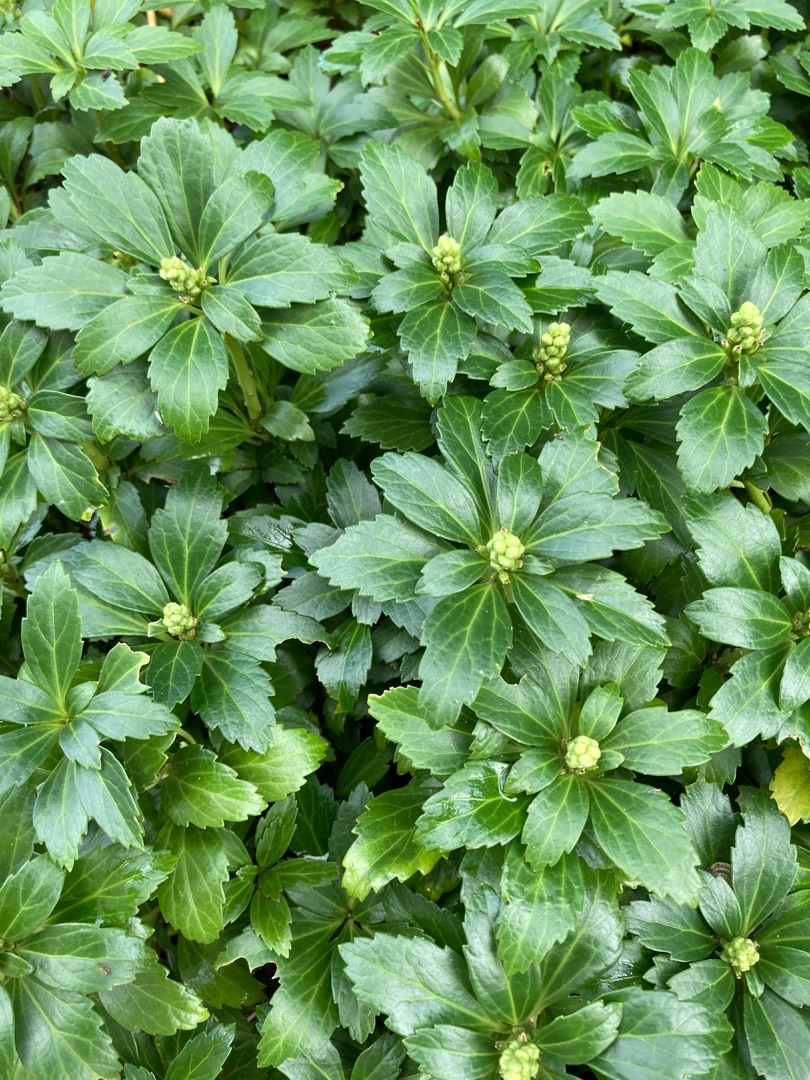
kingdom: Plantae
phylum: Tracheophyta
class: Magnoliopsida
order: Buxales
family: Buxaceae
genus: Pachysandra
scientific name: Pachysandra terminalis
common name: Vinterglans
